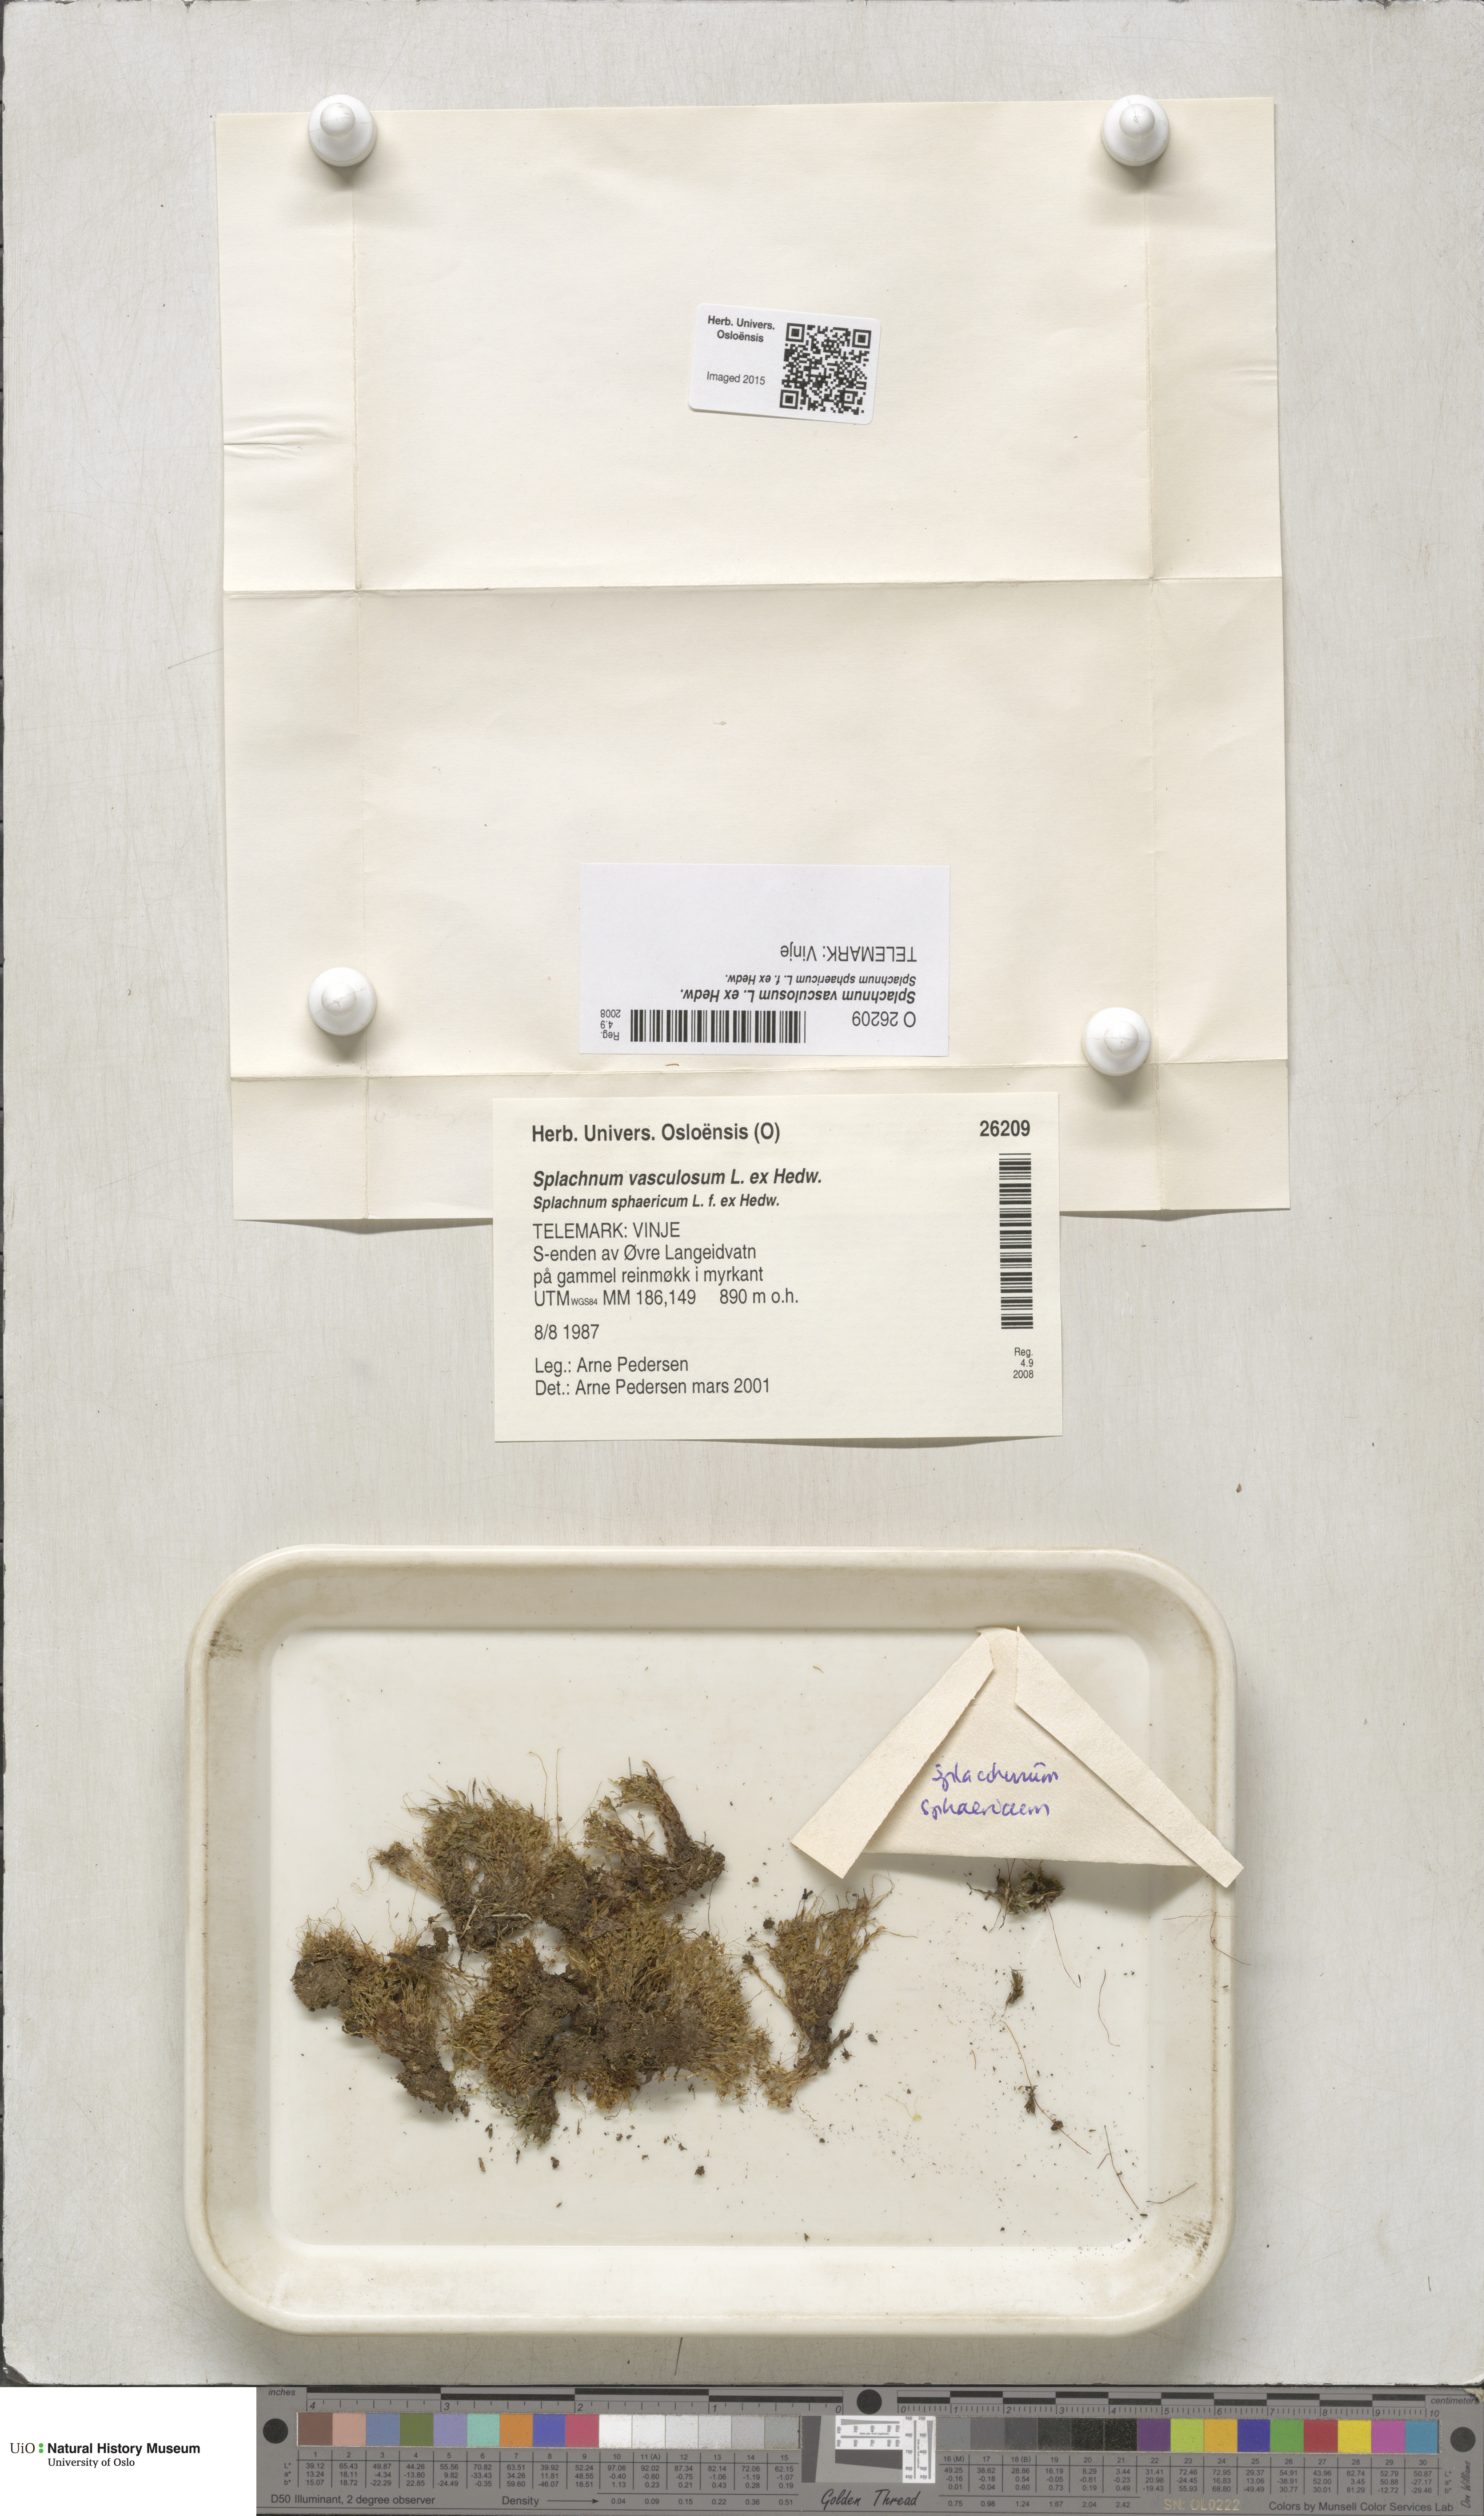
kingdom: Plantae
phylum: Bryophyta
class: Bryopsida
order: Splachnales
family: Splachnaceae
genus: Splachnum
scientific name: Splachnum vasculosum
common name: Rugged dung moss
